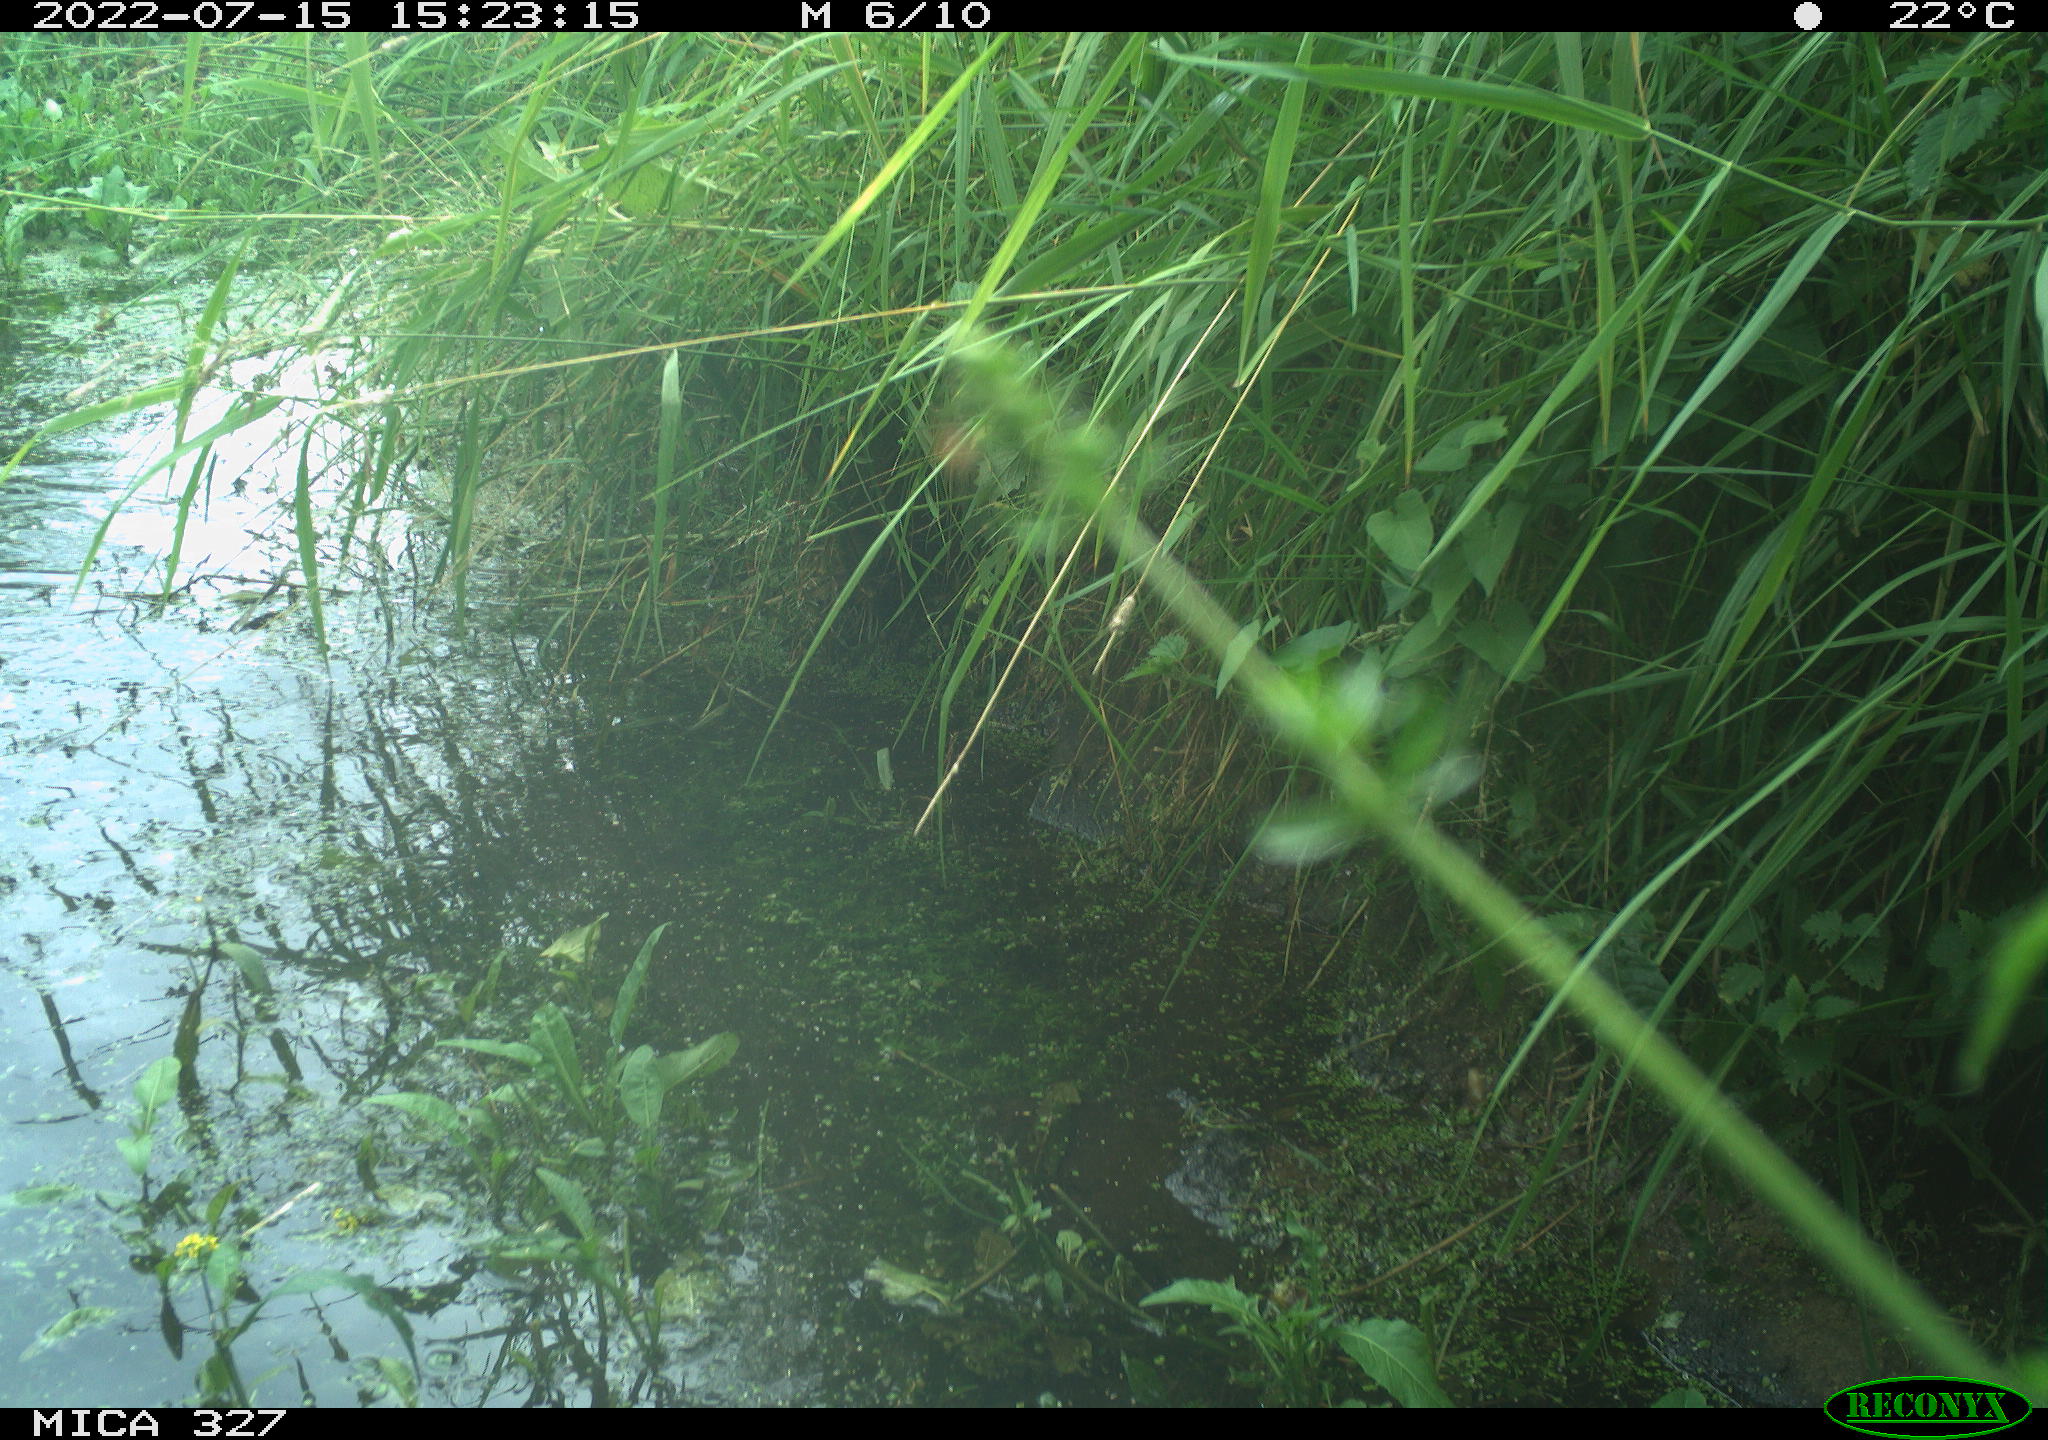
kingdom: Animalia
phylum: Chordata
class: Aves
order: Anseriformes
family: Anatidae
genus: Anas
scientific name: Anas
